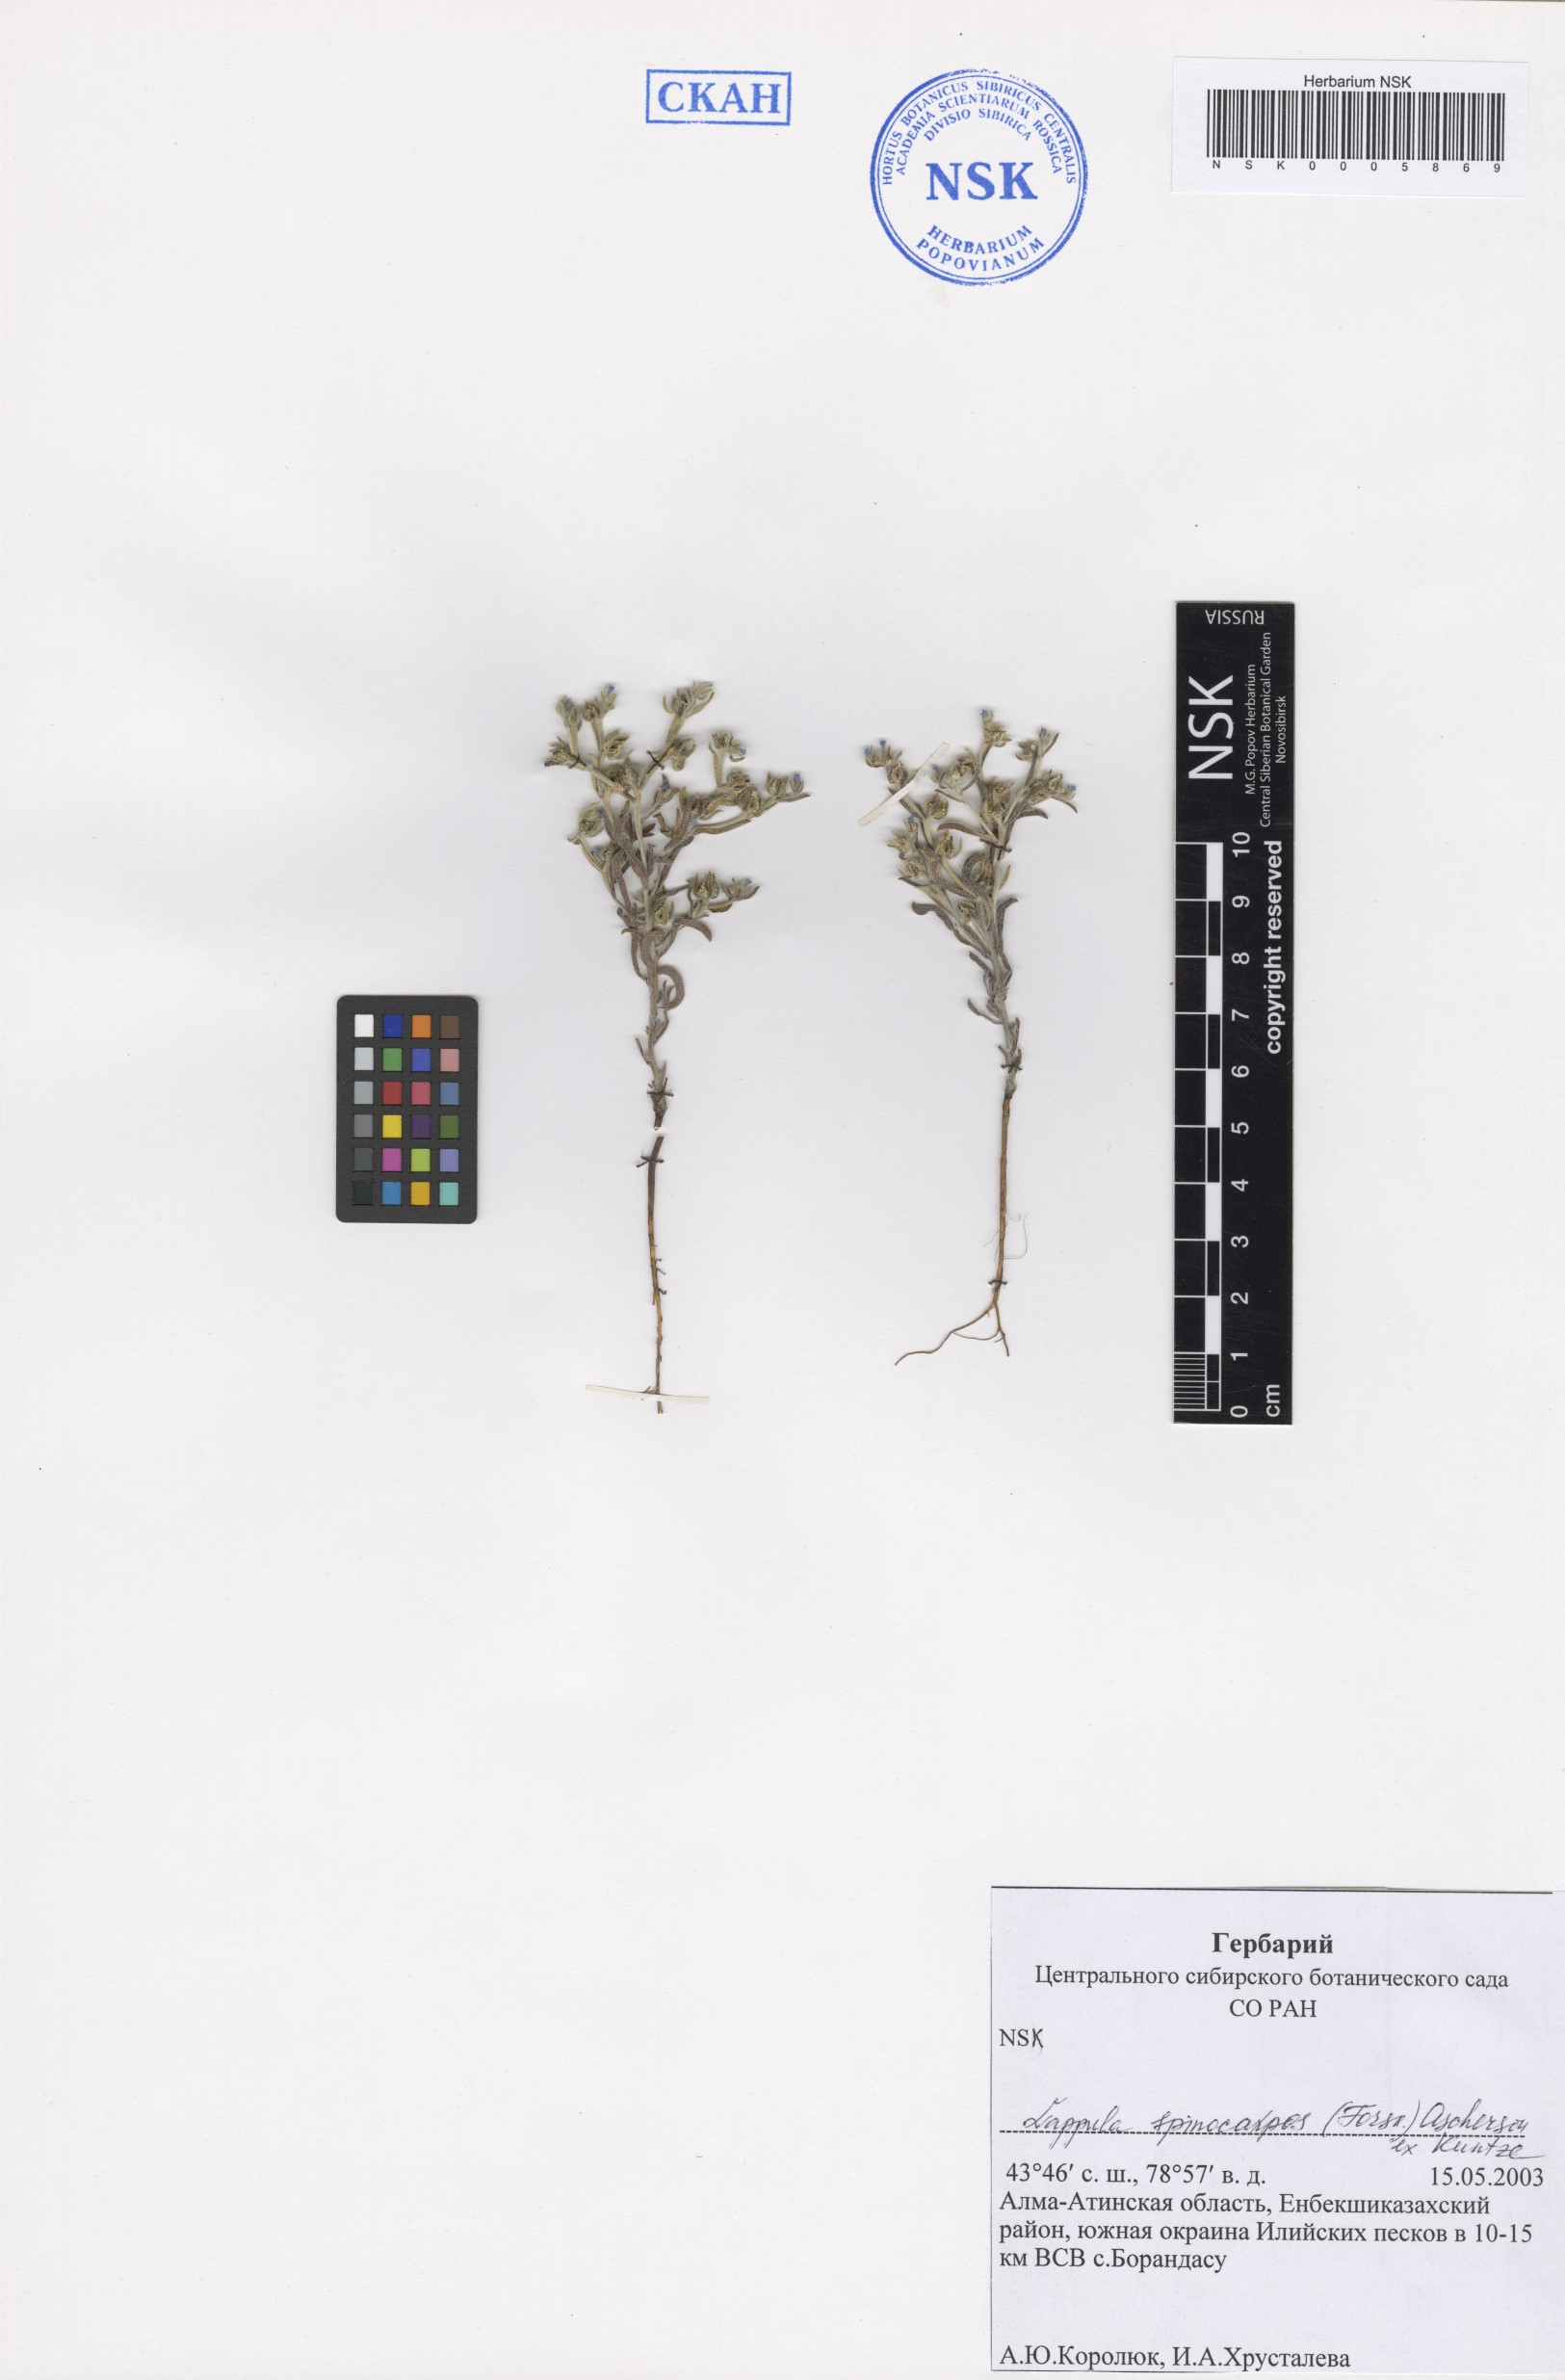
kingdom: Plantae
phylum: Tracheophyta
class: Magnoliopsida
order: Boraginales
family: Boraginaceae
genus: Lappula
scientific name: Lappula spinocarpos
